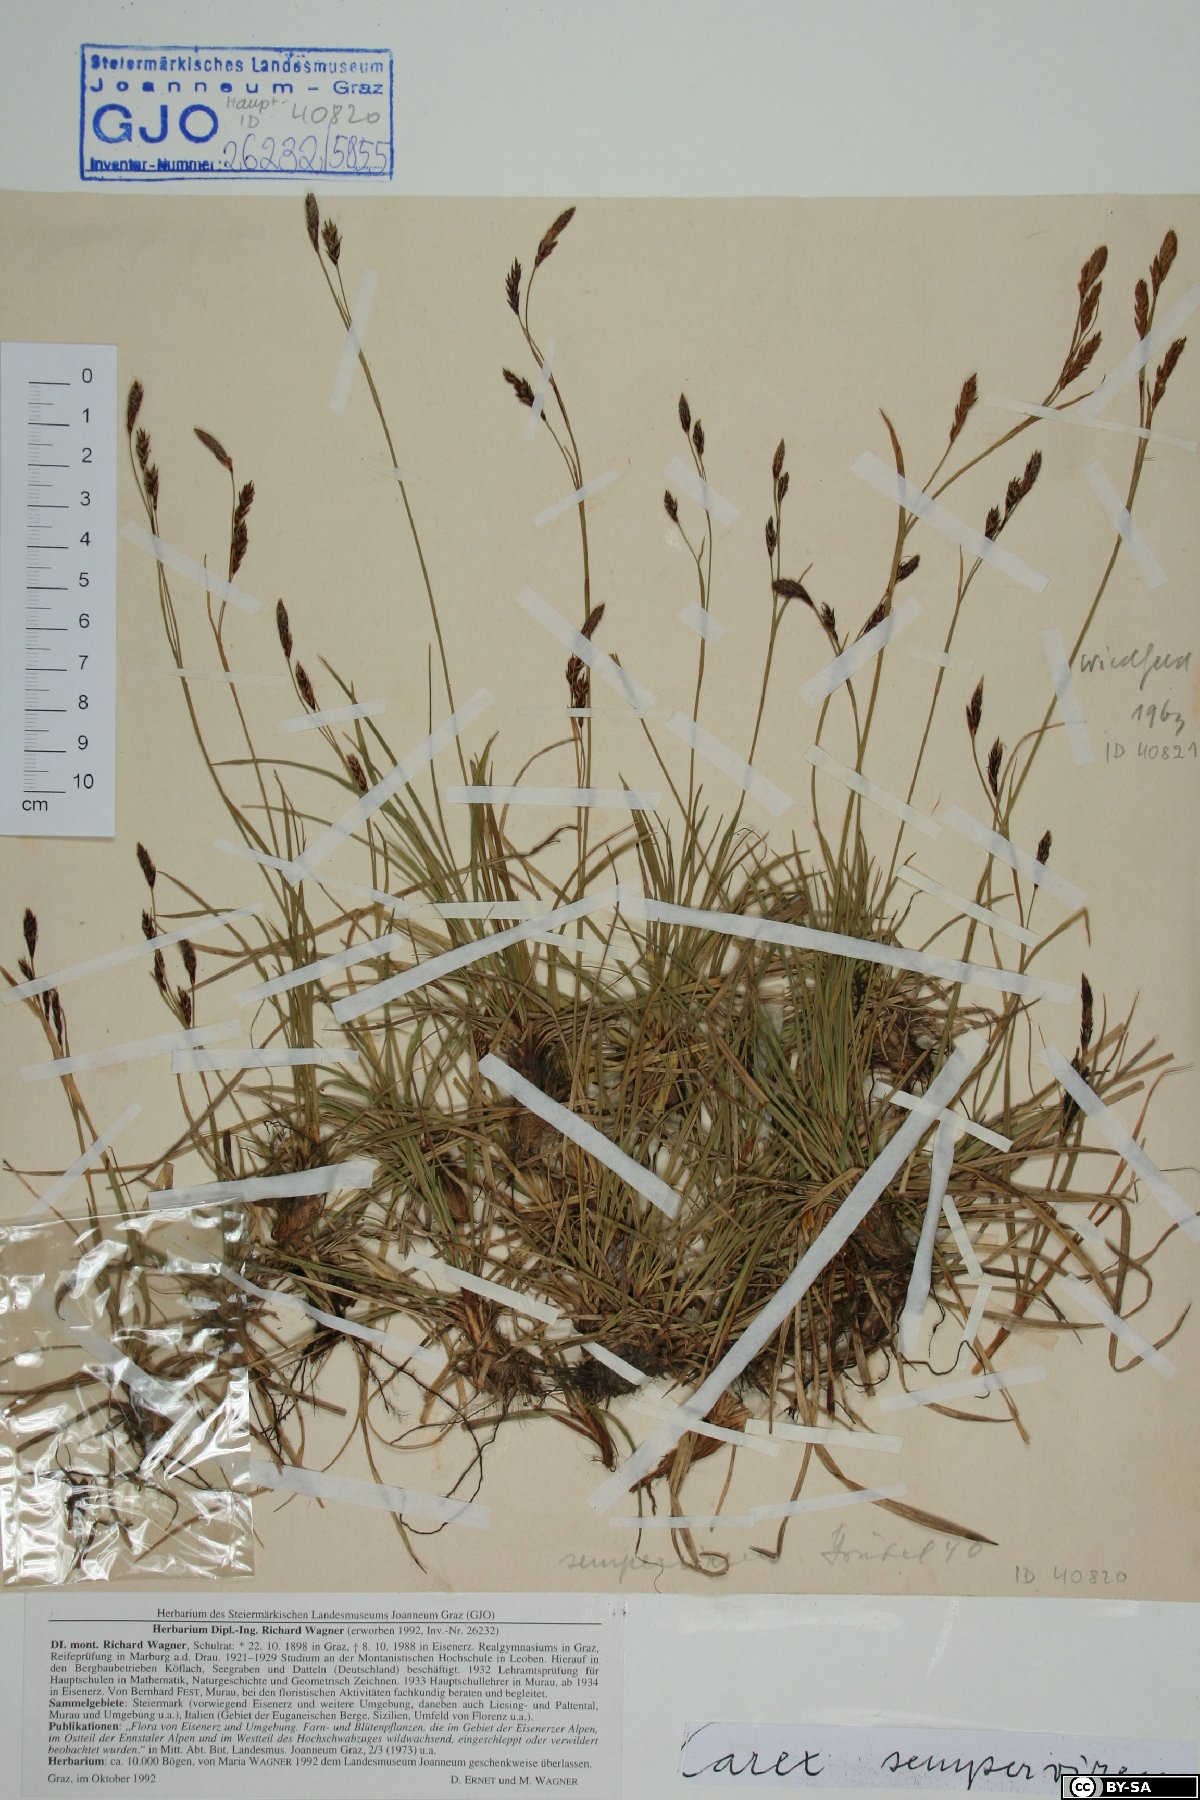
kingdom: Plantae
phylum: Tracheophyta
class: Liliopsida
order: Poales
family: Cyperaceae
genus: Carex
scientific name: Carex sempervirens
